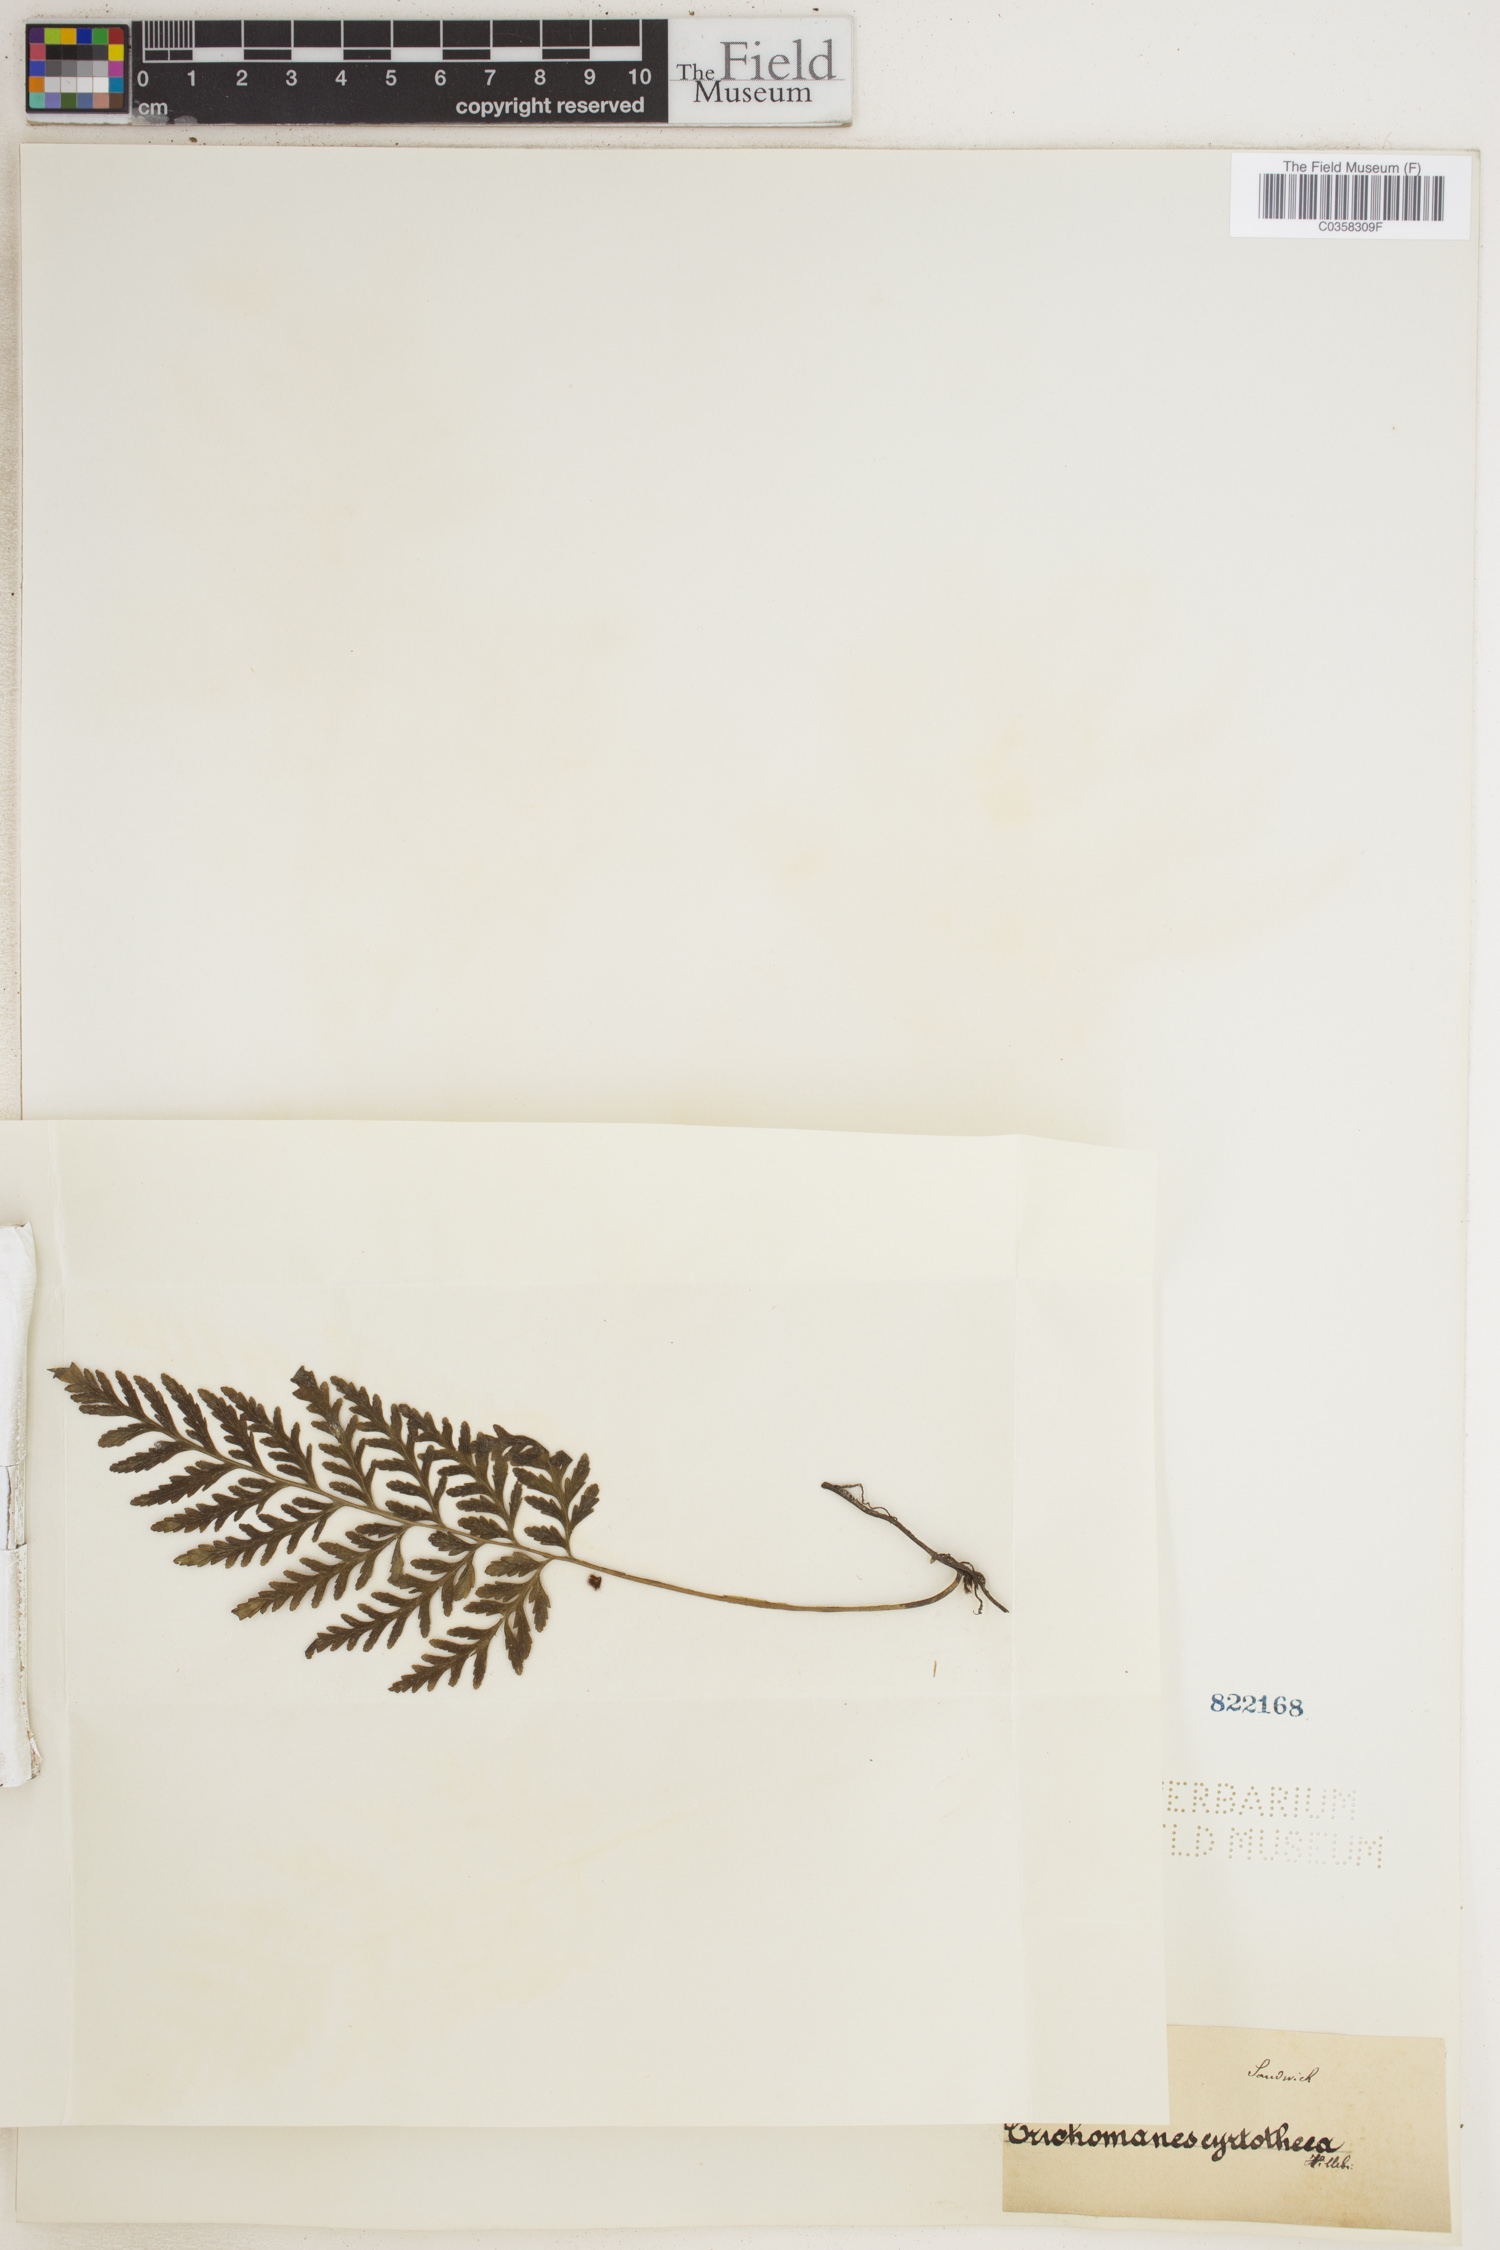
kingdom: Plantae
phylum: Tracheophyta
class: Polypodiopsida
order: Hymenophyllales
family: Hymenophyllaceae
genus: Vandenboschia
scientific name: Vandenboschia cyrtotheca
